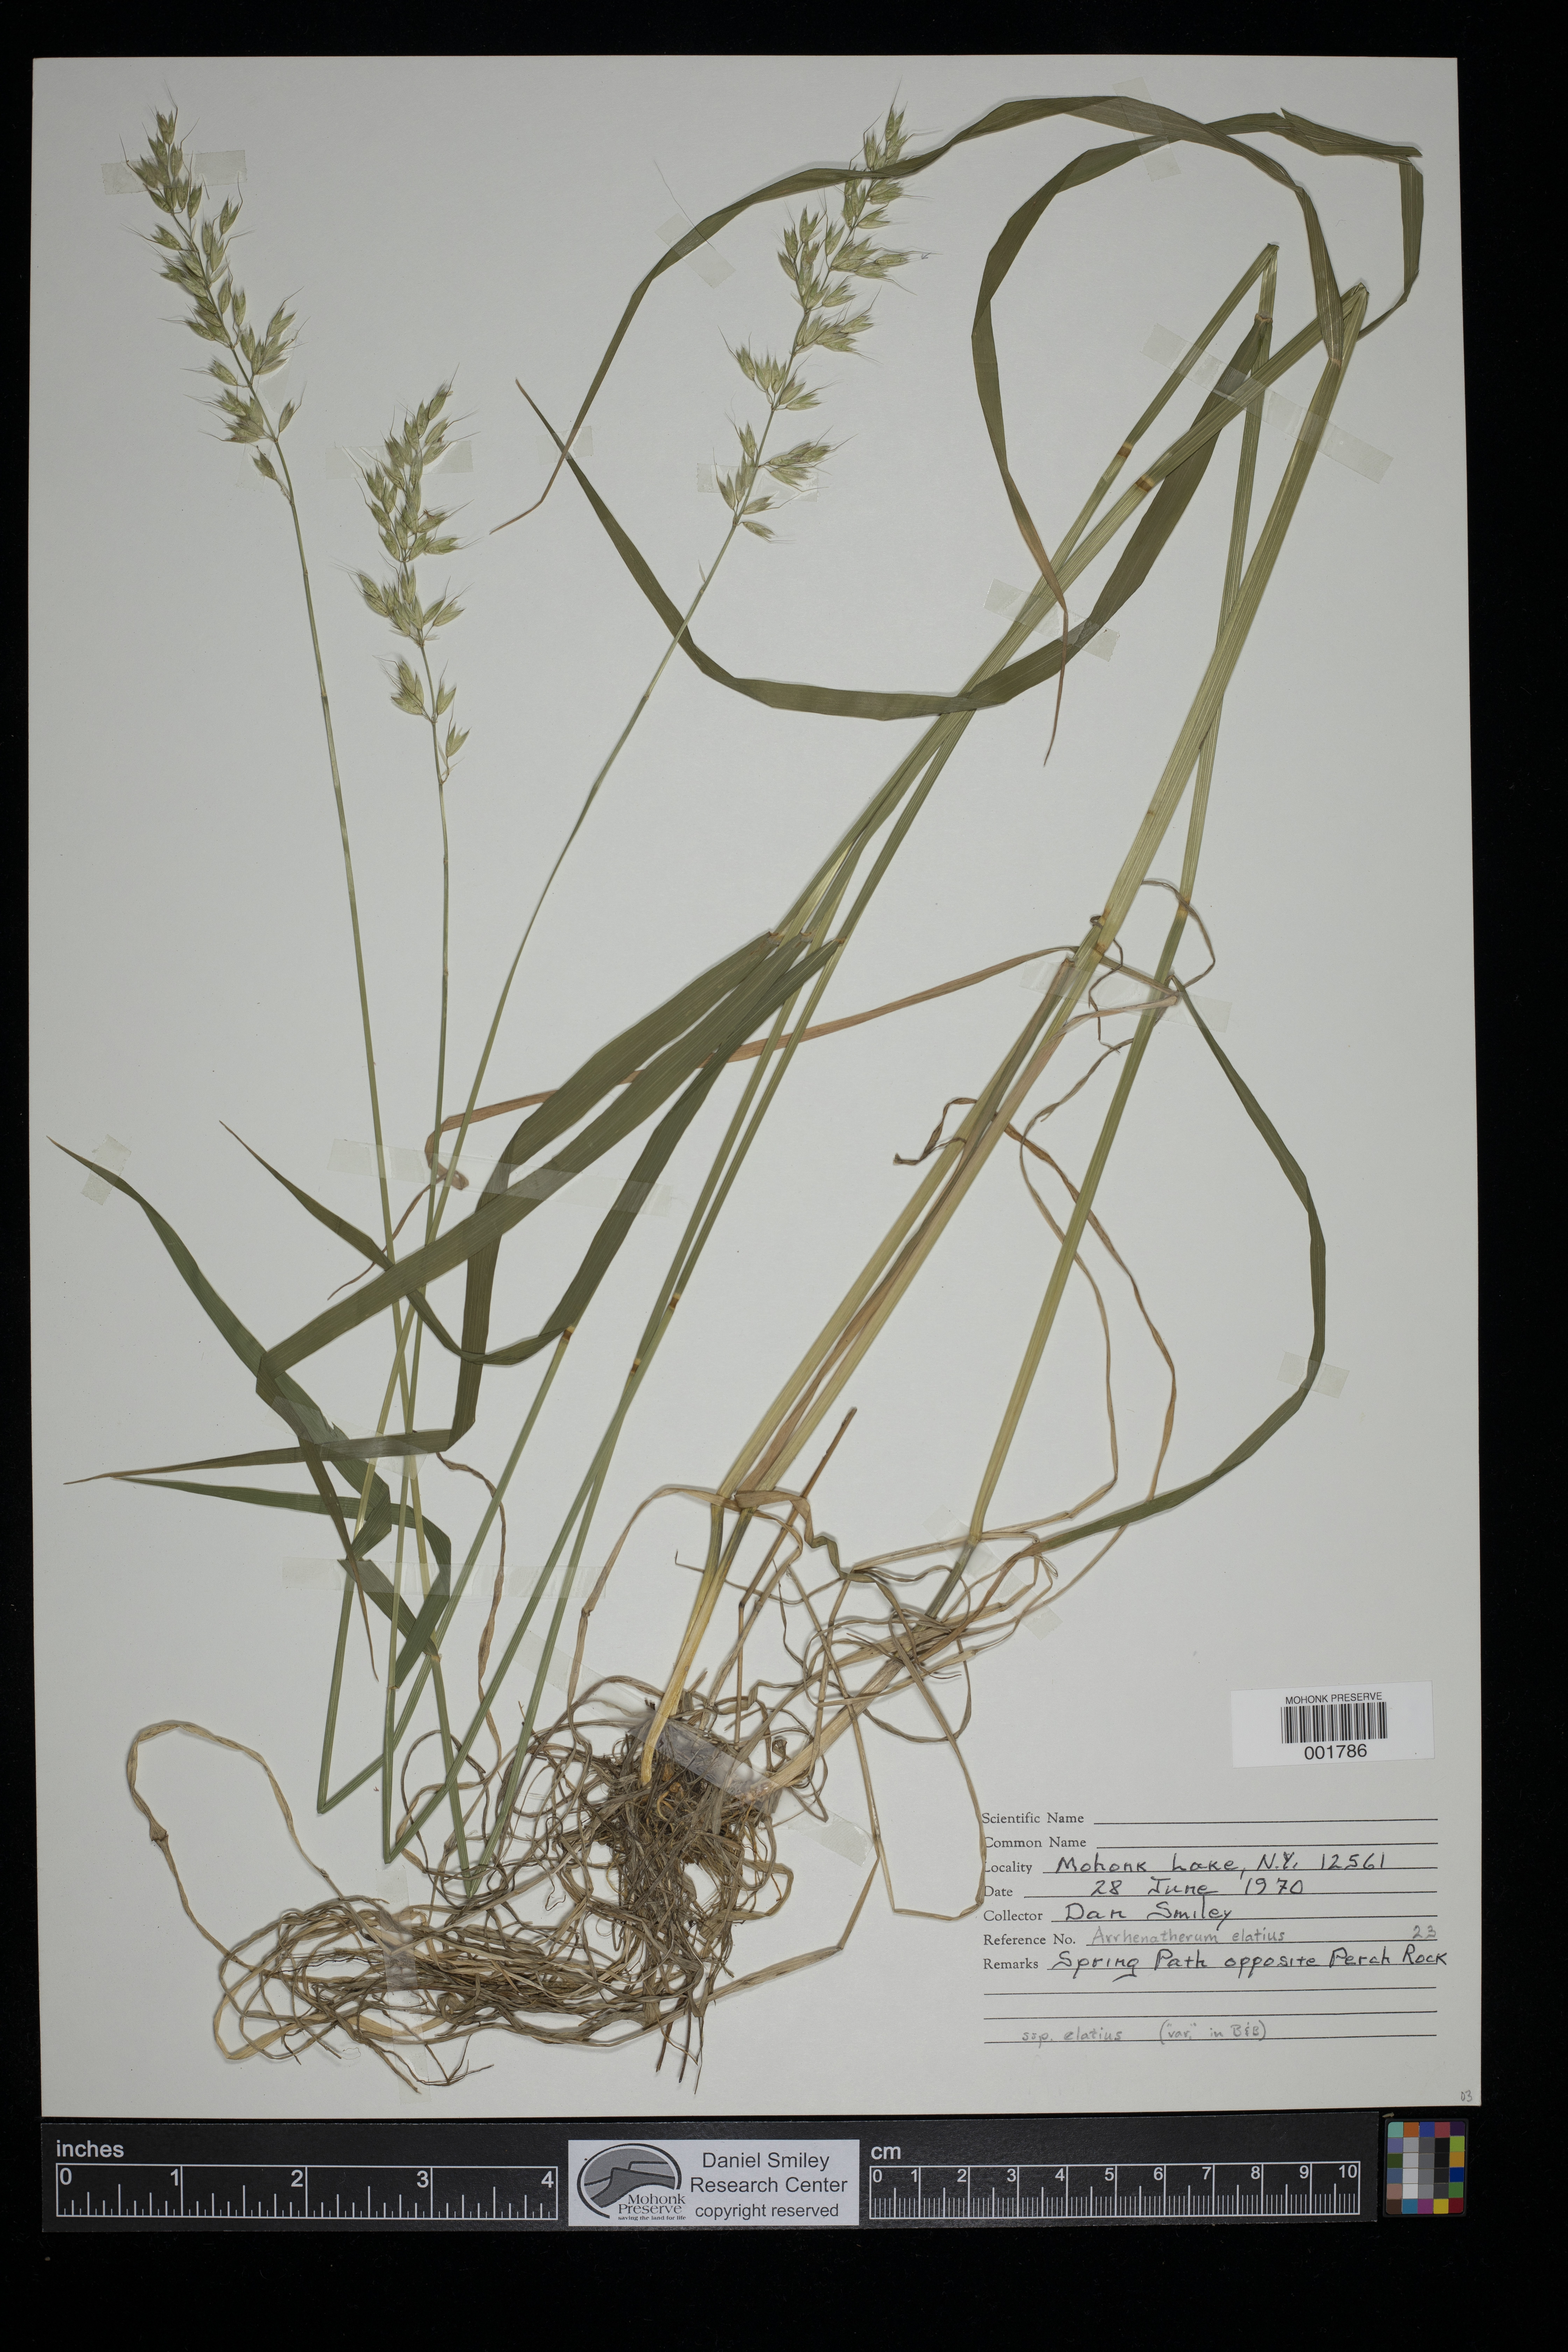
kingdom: Plantae
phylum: Tracheophyta
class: Liliopsida
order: Poales
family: Poaceae
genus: Arrhenatherum
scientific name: Arrhenatherum elatius
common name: Tall oatgrass
